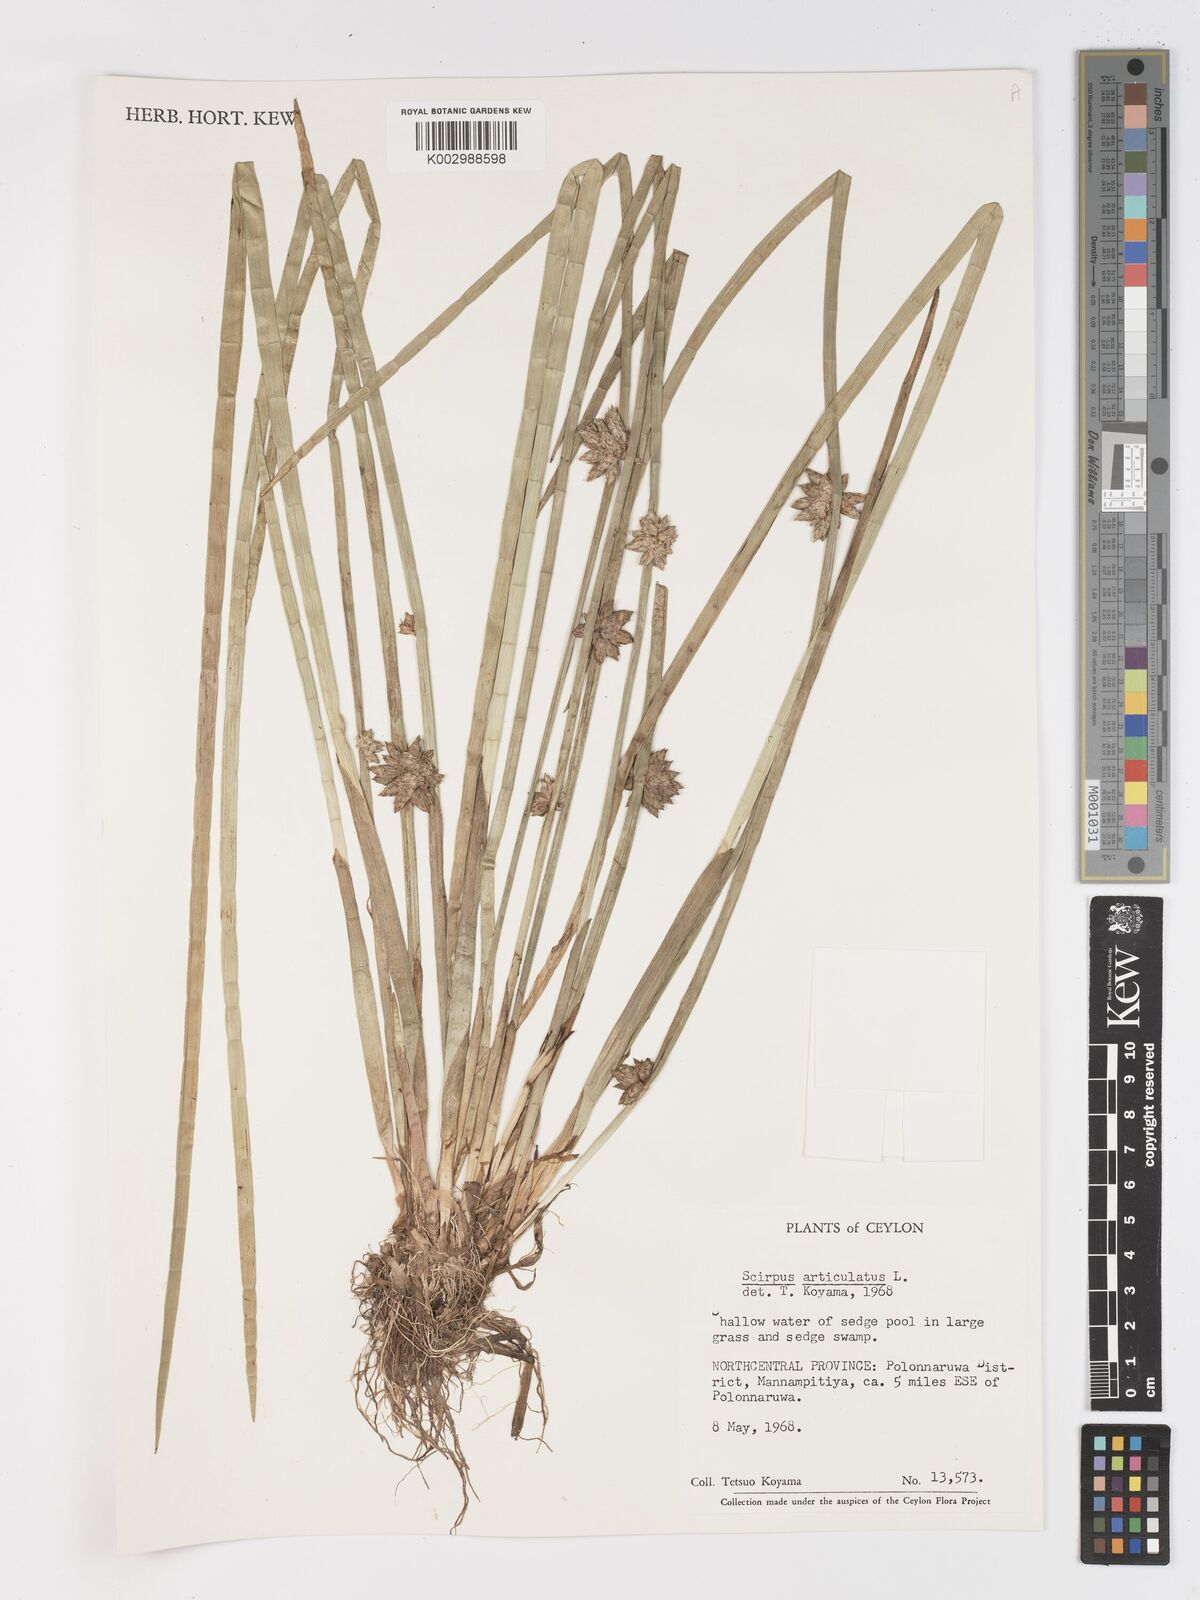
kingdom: Plantae
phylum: Tracheophyta
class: Liliopsida
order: Poales
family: Cyperaceae
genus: Schoenoplectiella
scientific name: Schoenoplectiella articulata
